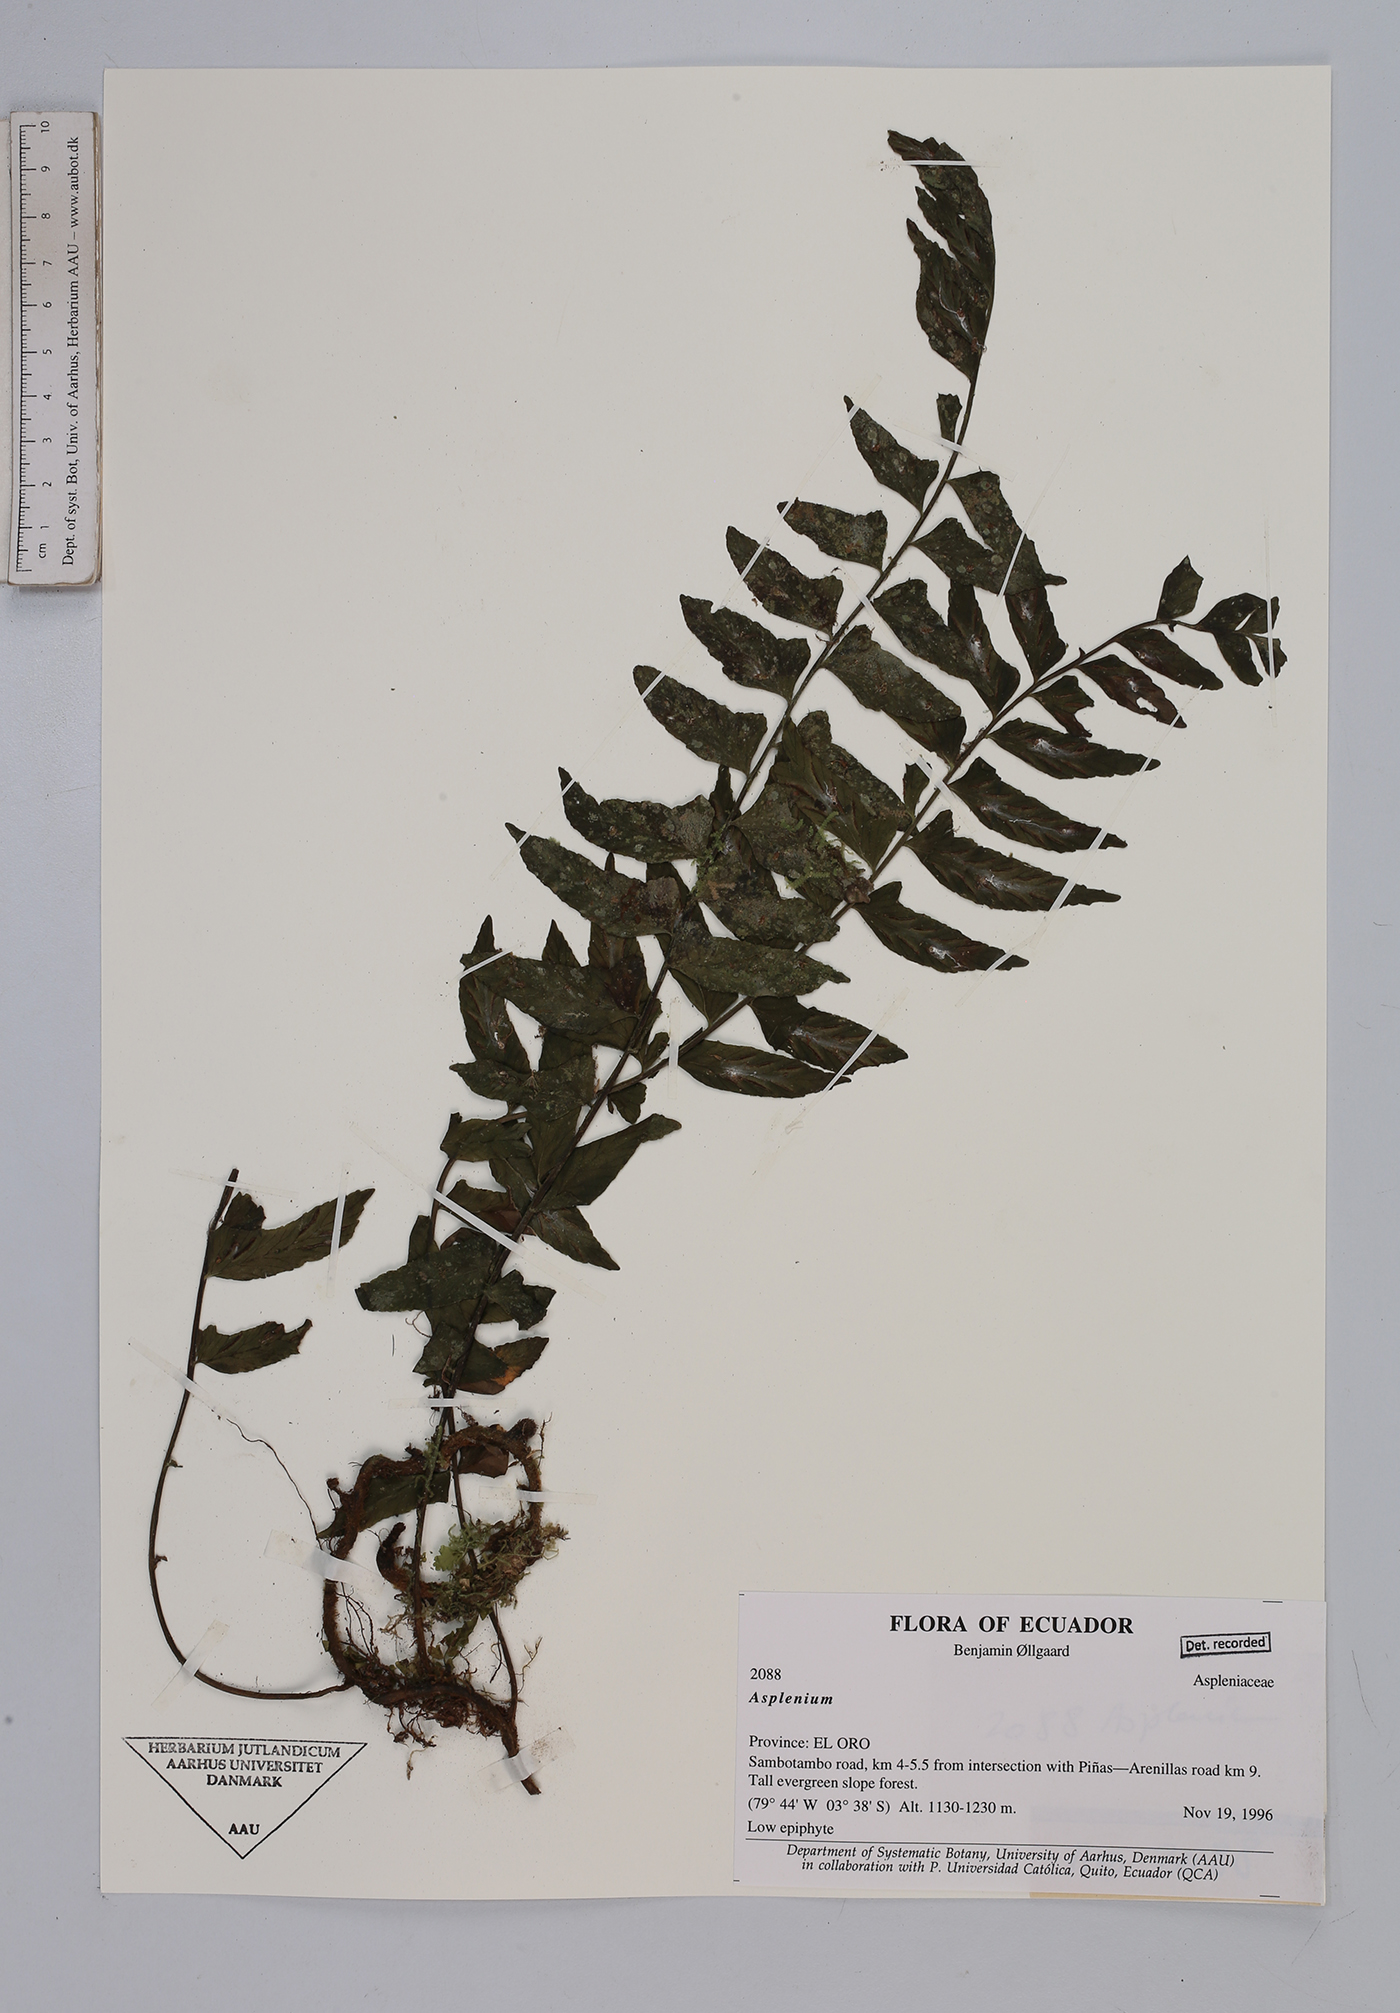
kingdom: Plantae
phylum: Tracheophyta
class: Polypodiopsida
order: Polypodiales
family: Aspleniaceae
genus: Asplenium
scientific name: Asplenium
